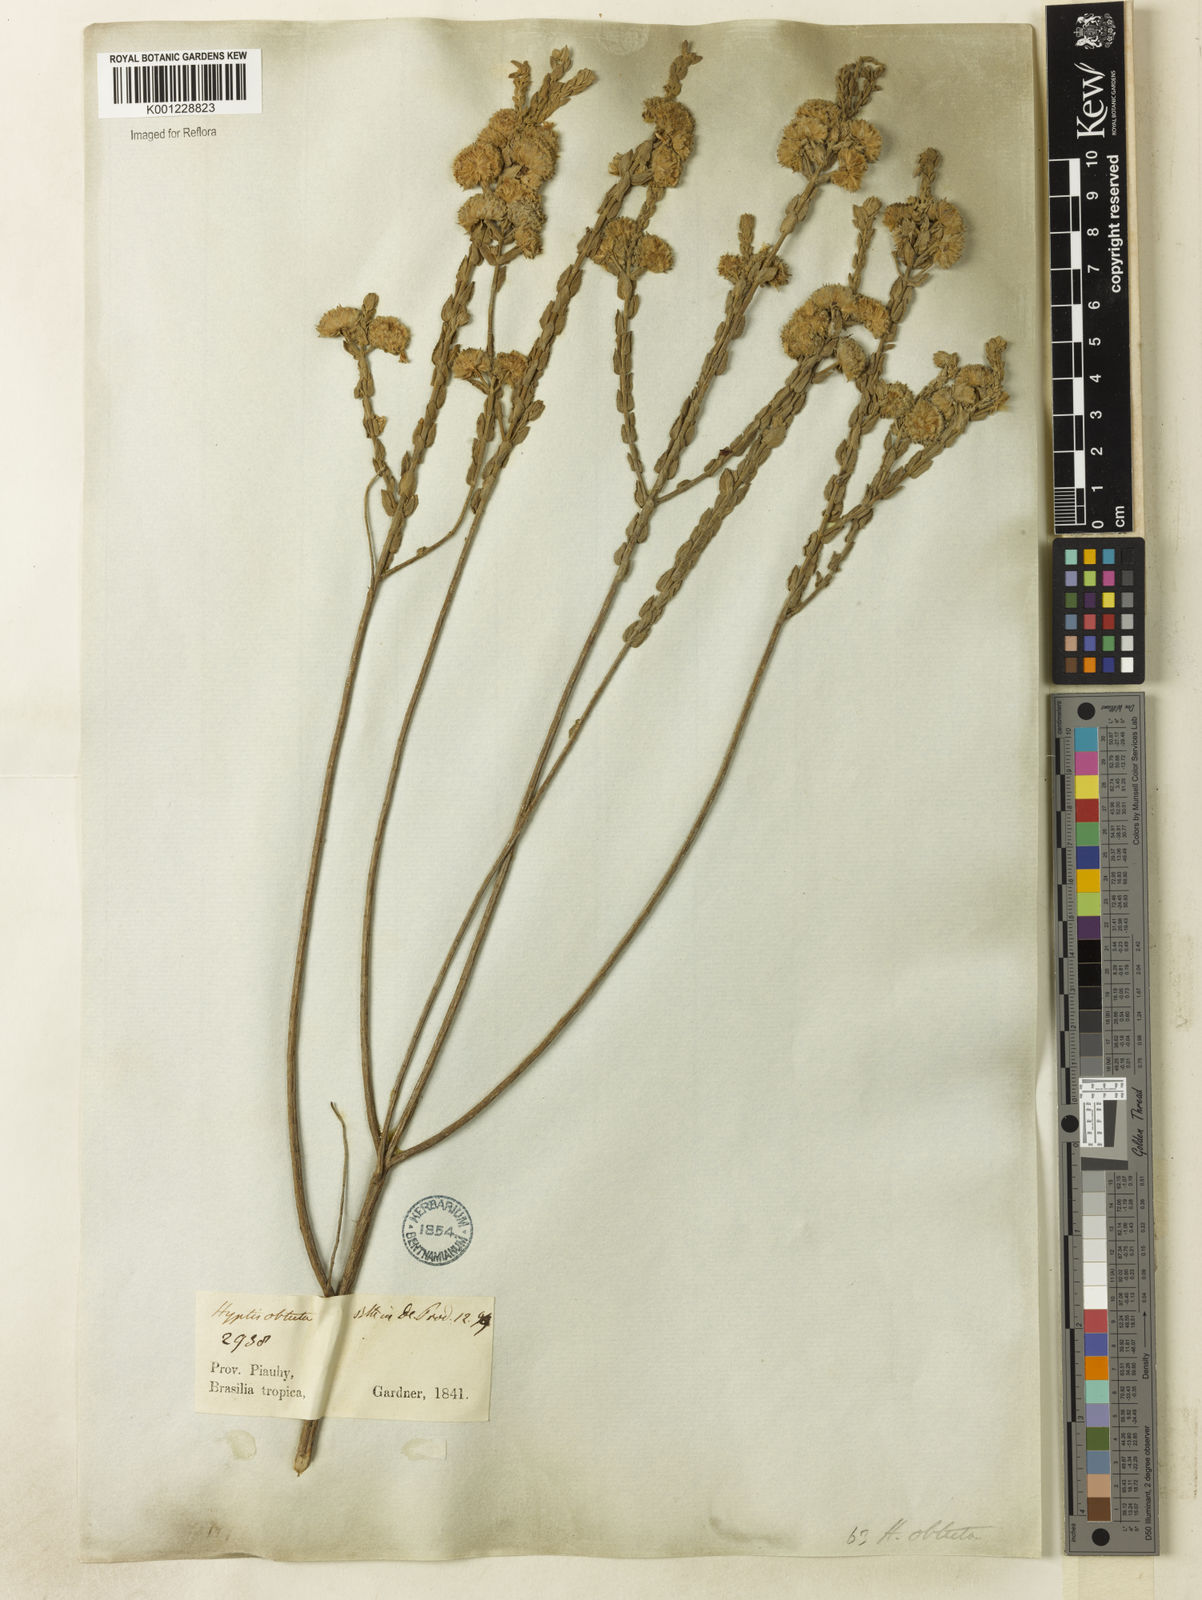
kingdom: Plantae
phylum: Tracheophyta
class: Magnoliopsida
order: Lamiales
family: Lamiaceae
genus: Hyptis
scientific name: Hyptis obtecta
